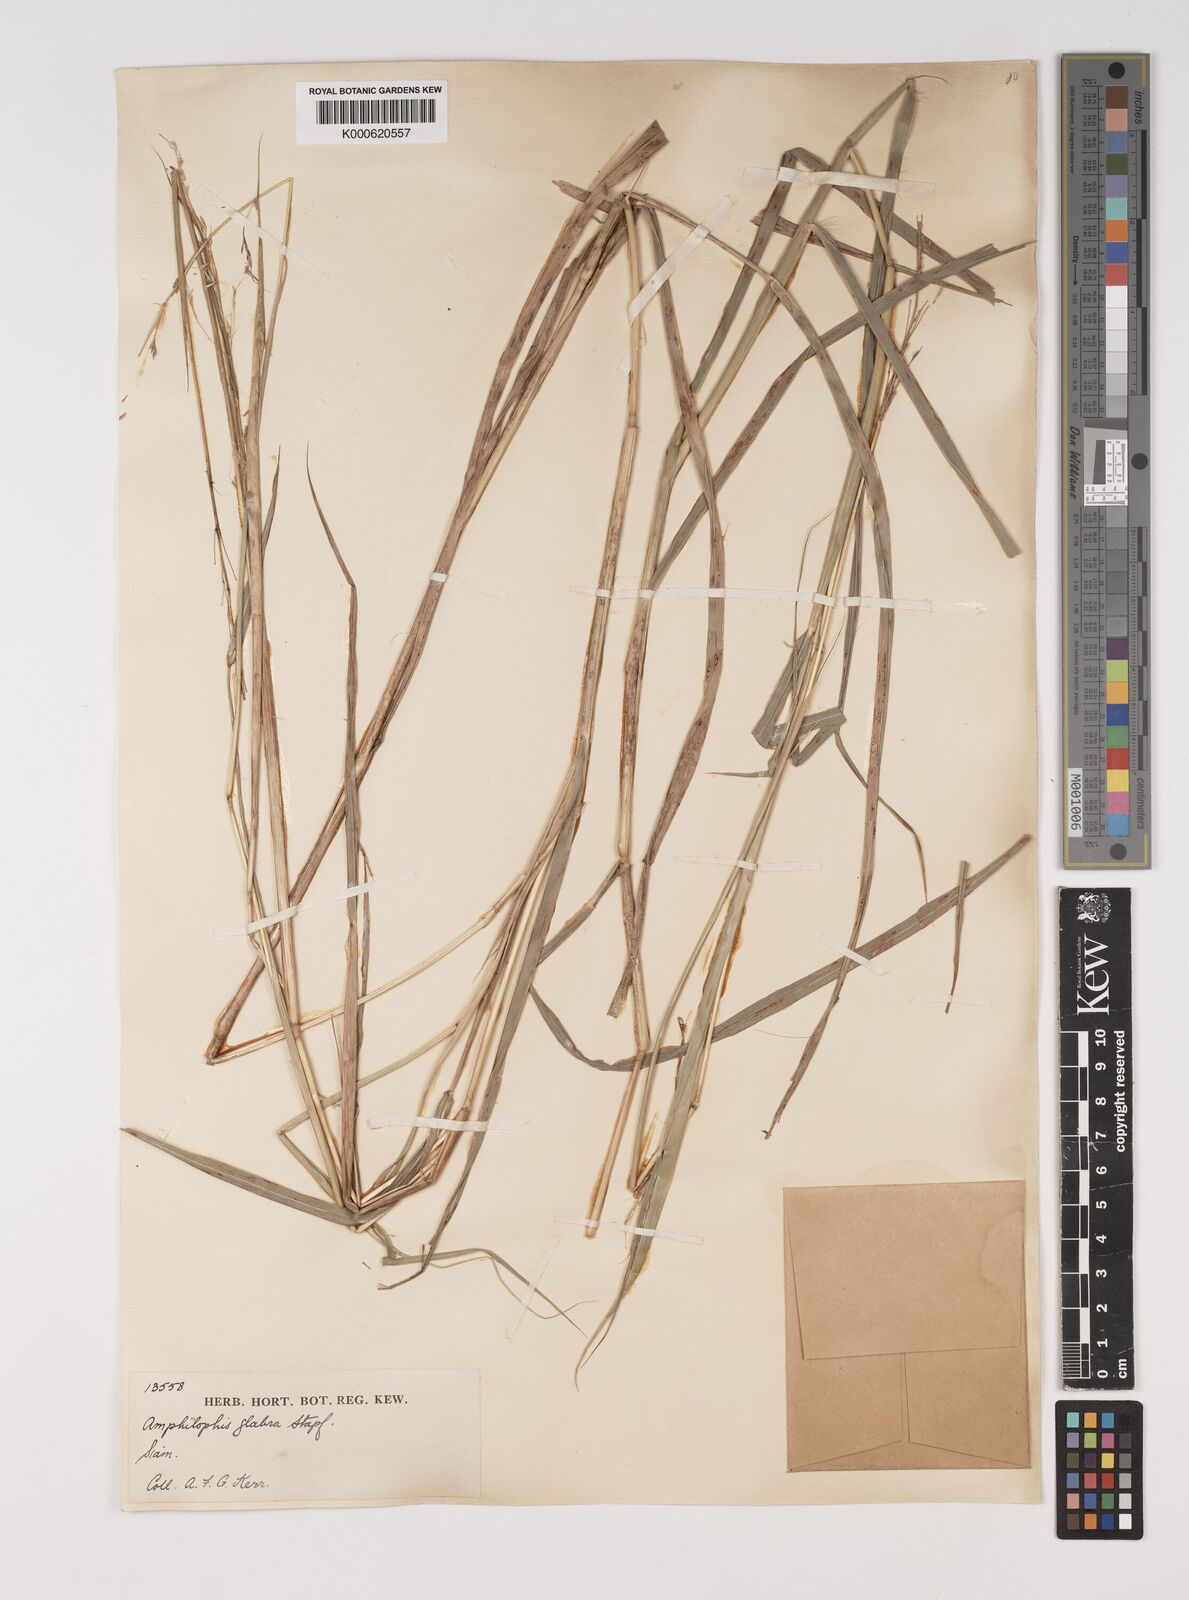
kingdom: Plantae
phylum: Tracheophyta
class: Liliopsida
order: Poales
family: Poaceae
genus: Bothriochloa
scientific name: Bothriochloa bladhii
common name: Caucasian bluestem
